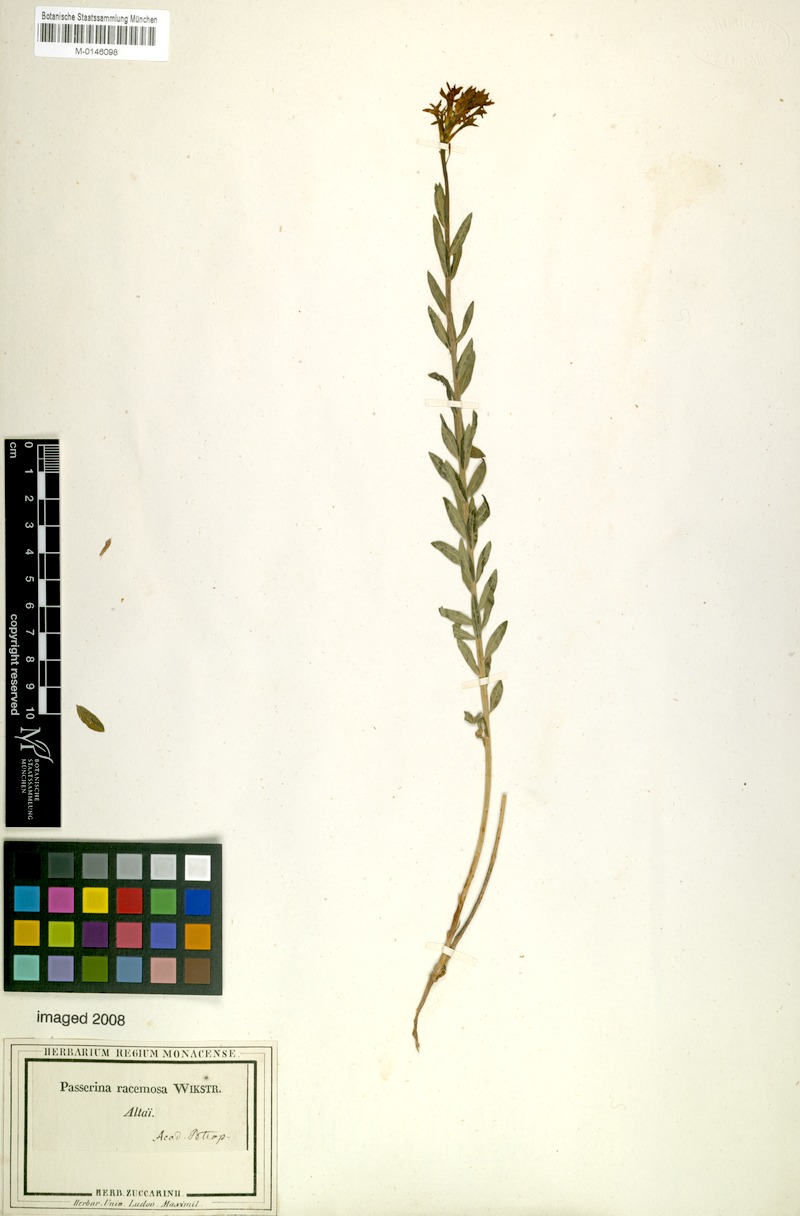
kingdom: Plantae
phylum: Tracheophyta
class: Magnoliopsida
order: Malvales
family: Thymelaeaceae
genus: Diarthron
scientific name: Diarthron altaicum
